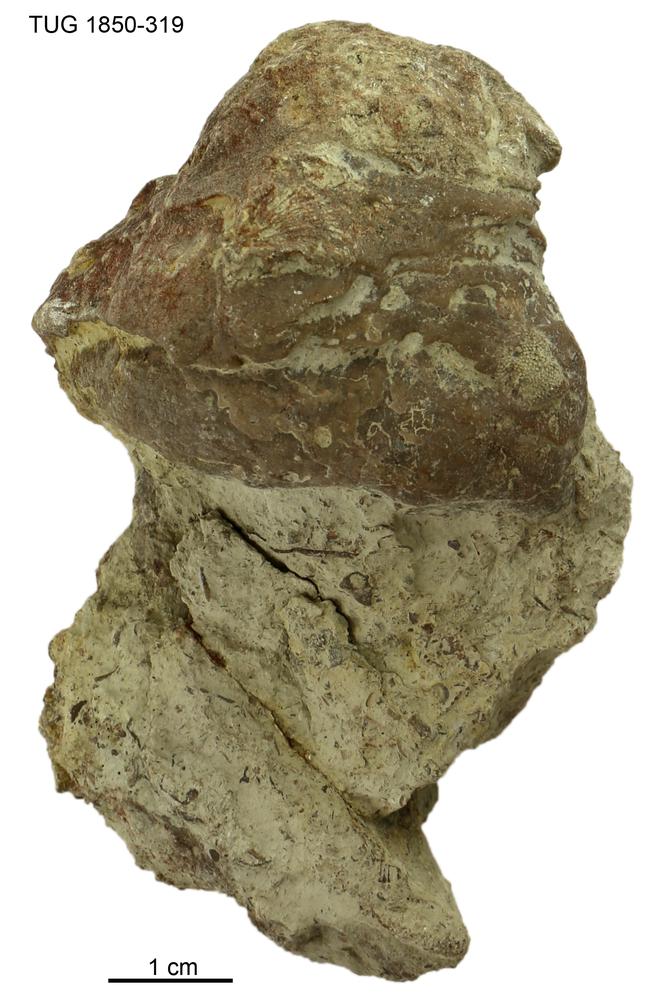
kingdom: Animalia
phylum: Porifera
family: Stromatoporidae
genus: Stromatopora
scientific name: Stromatopora
